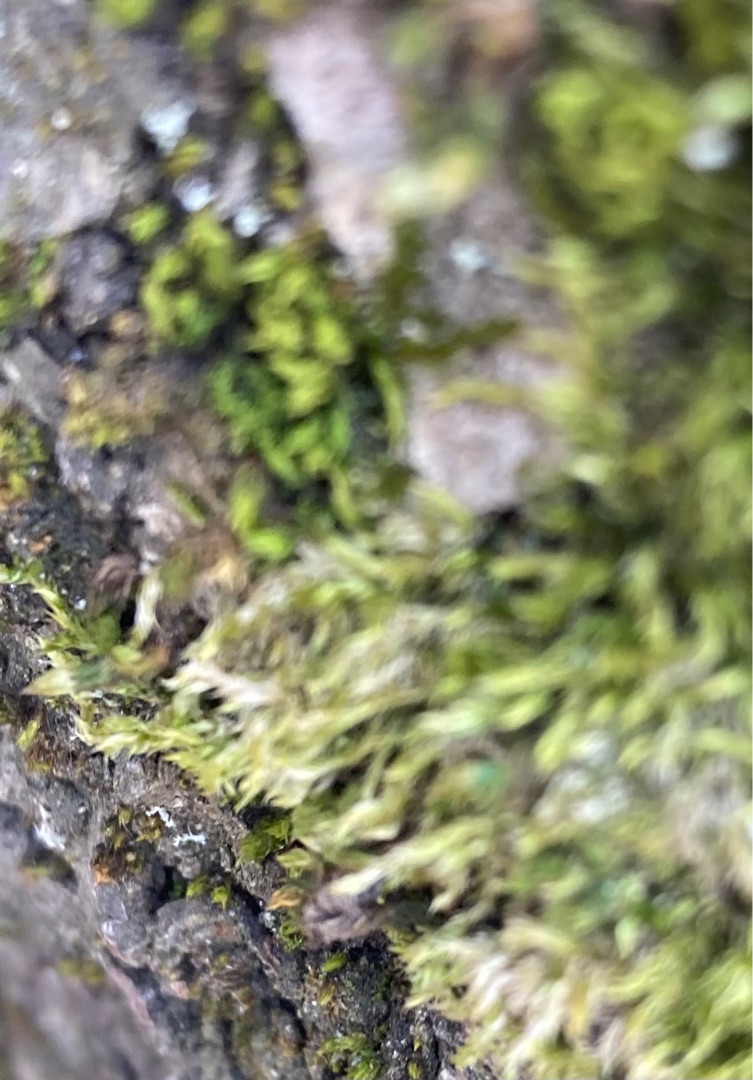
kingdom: Plantae
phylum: Bryophyta
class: Bryopsida
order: Hypnales
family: Hypnaceae
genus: Hypnum
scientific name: Hypnum
